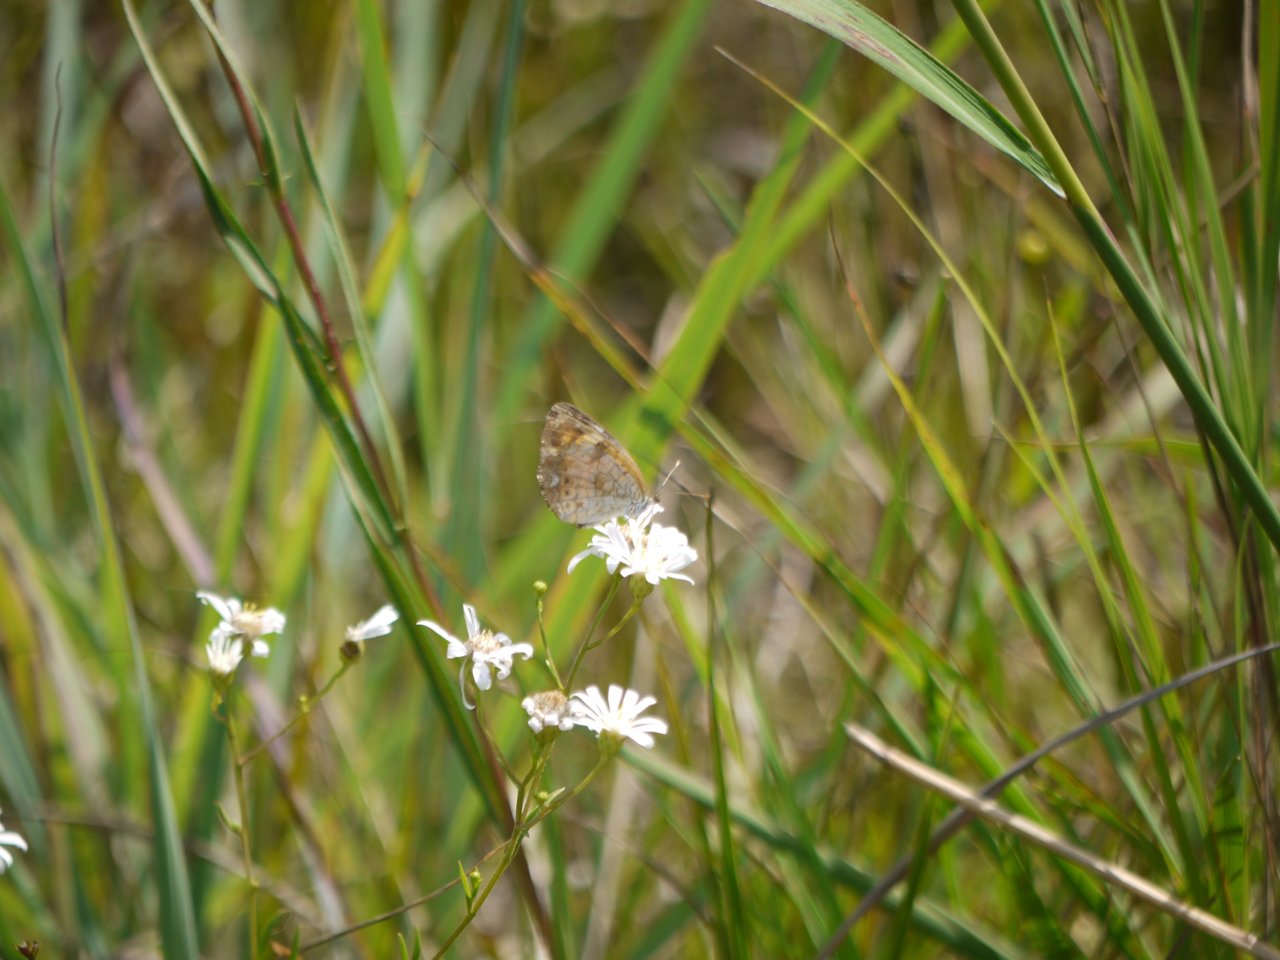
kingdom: Animalia
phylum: Arthropoda
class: Insecta
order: Lepidoptera
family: Nymphalidae
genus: Phyciodes
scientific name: Phyciodes tharos
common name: Northern Crescent
